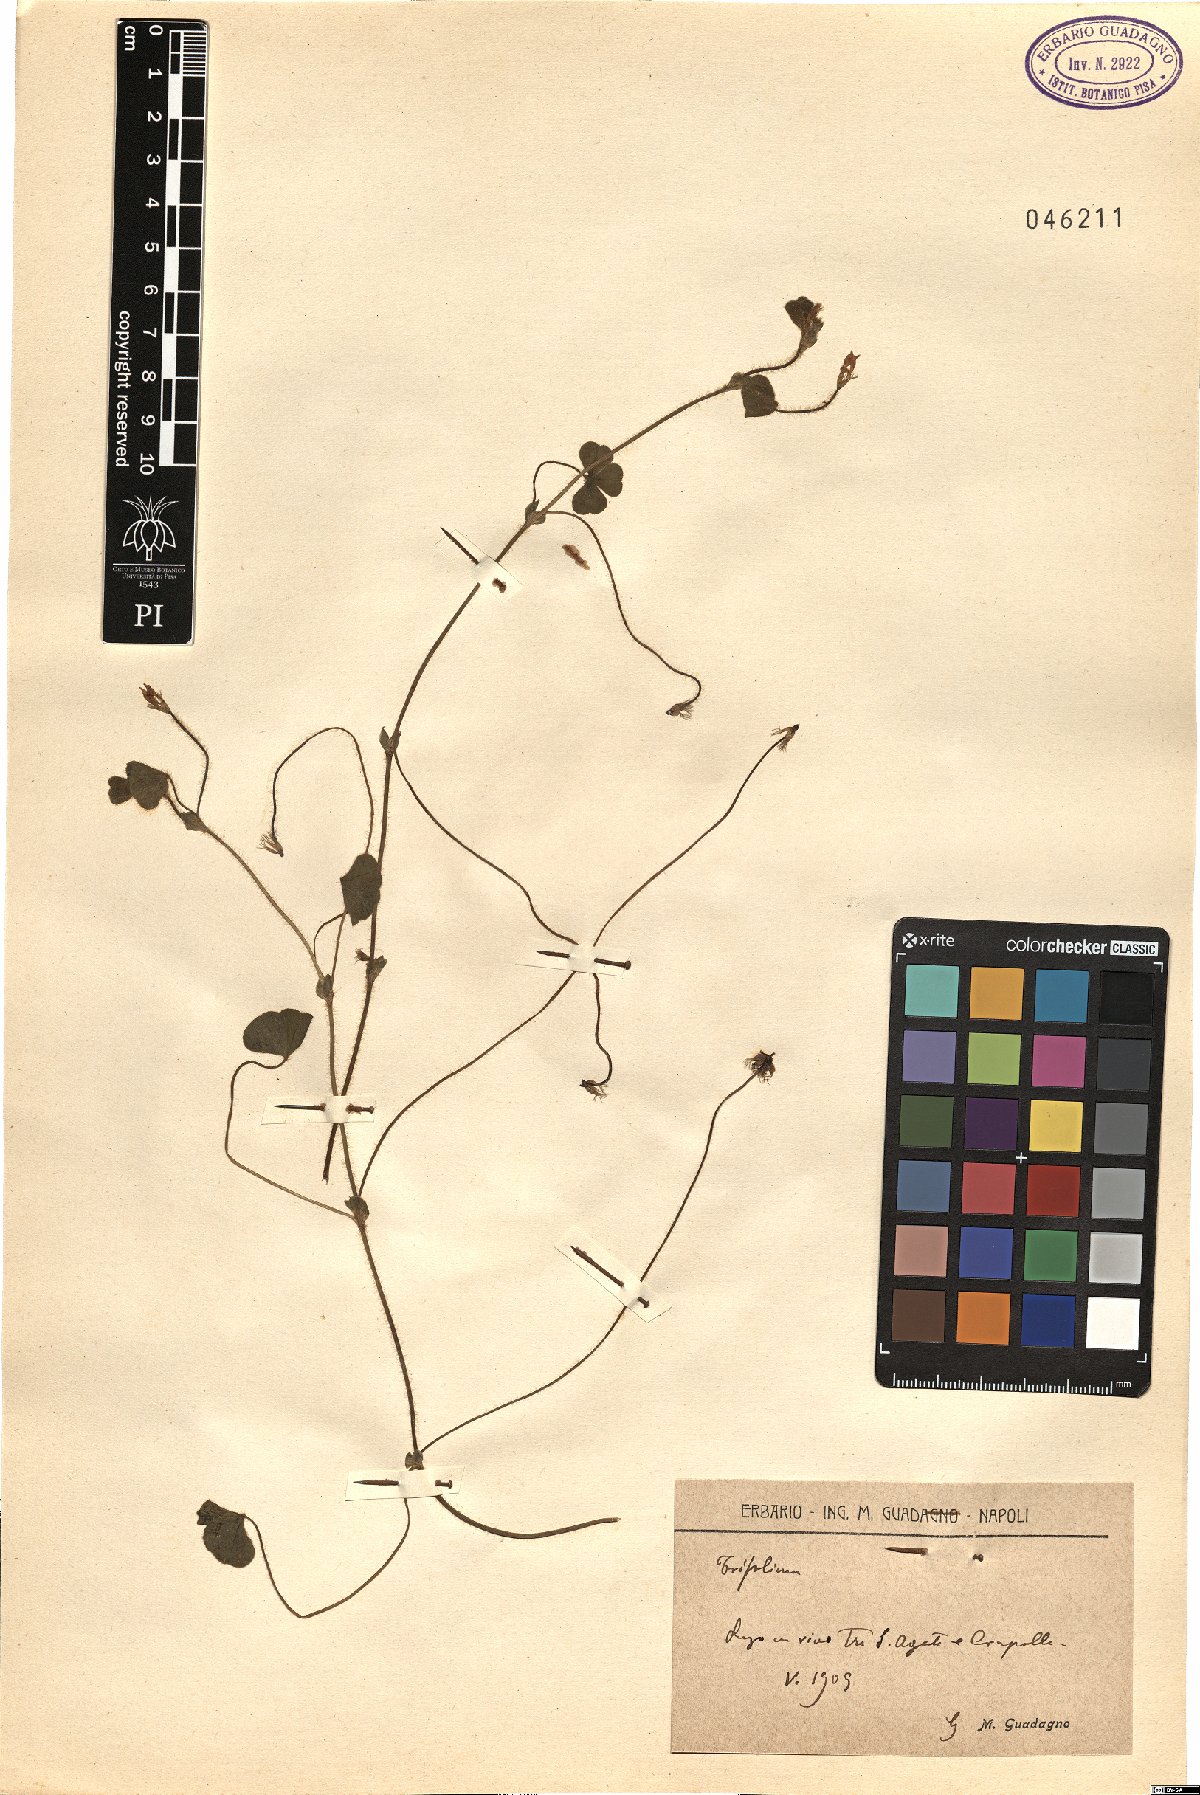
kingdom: Plantae
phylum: Tracheophyta
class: Magnoliopsida
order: Fabales
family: Fabaceae
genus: Trifolium
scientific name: Trifolium
